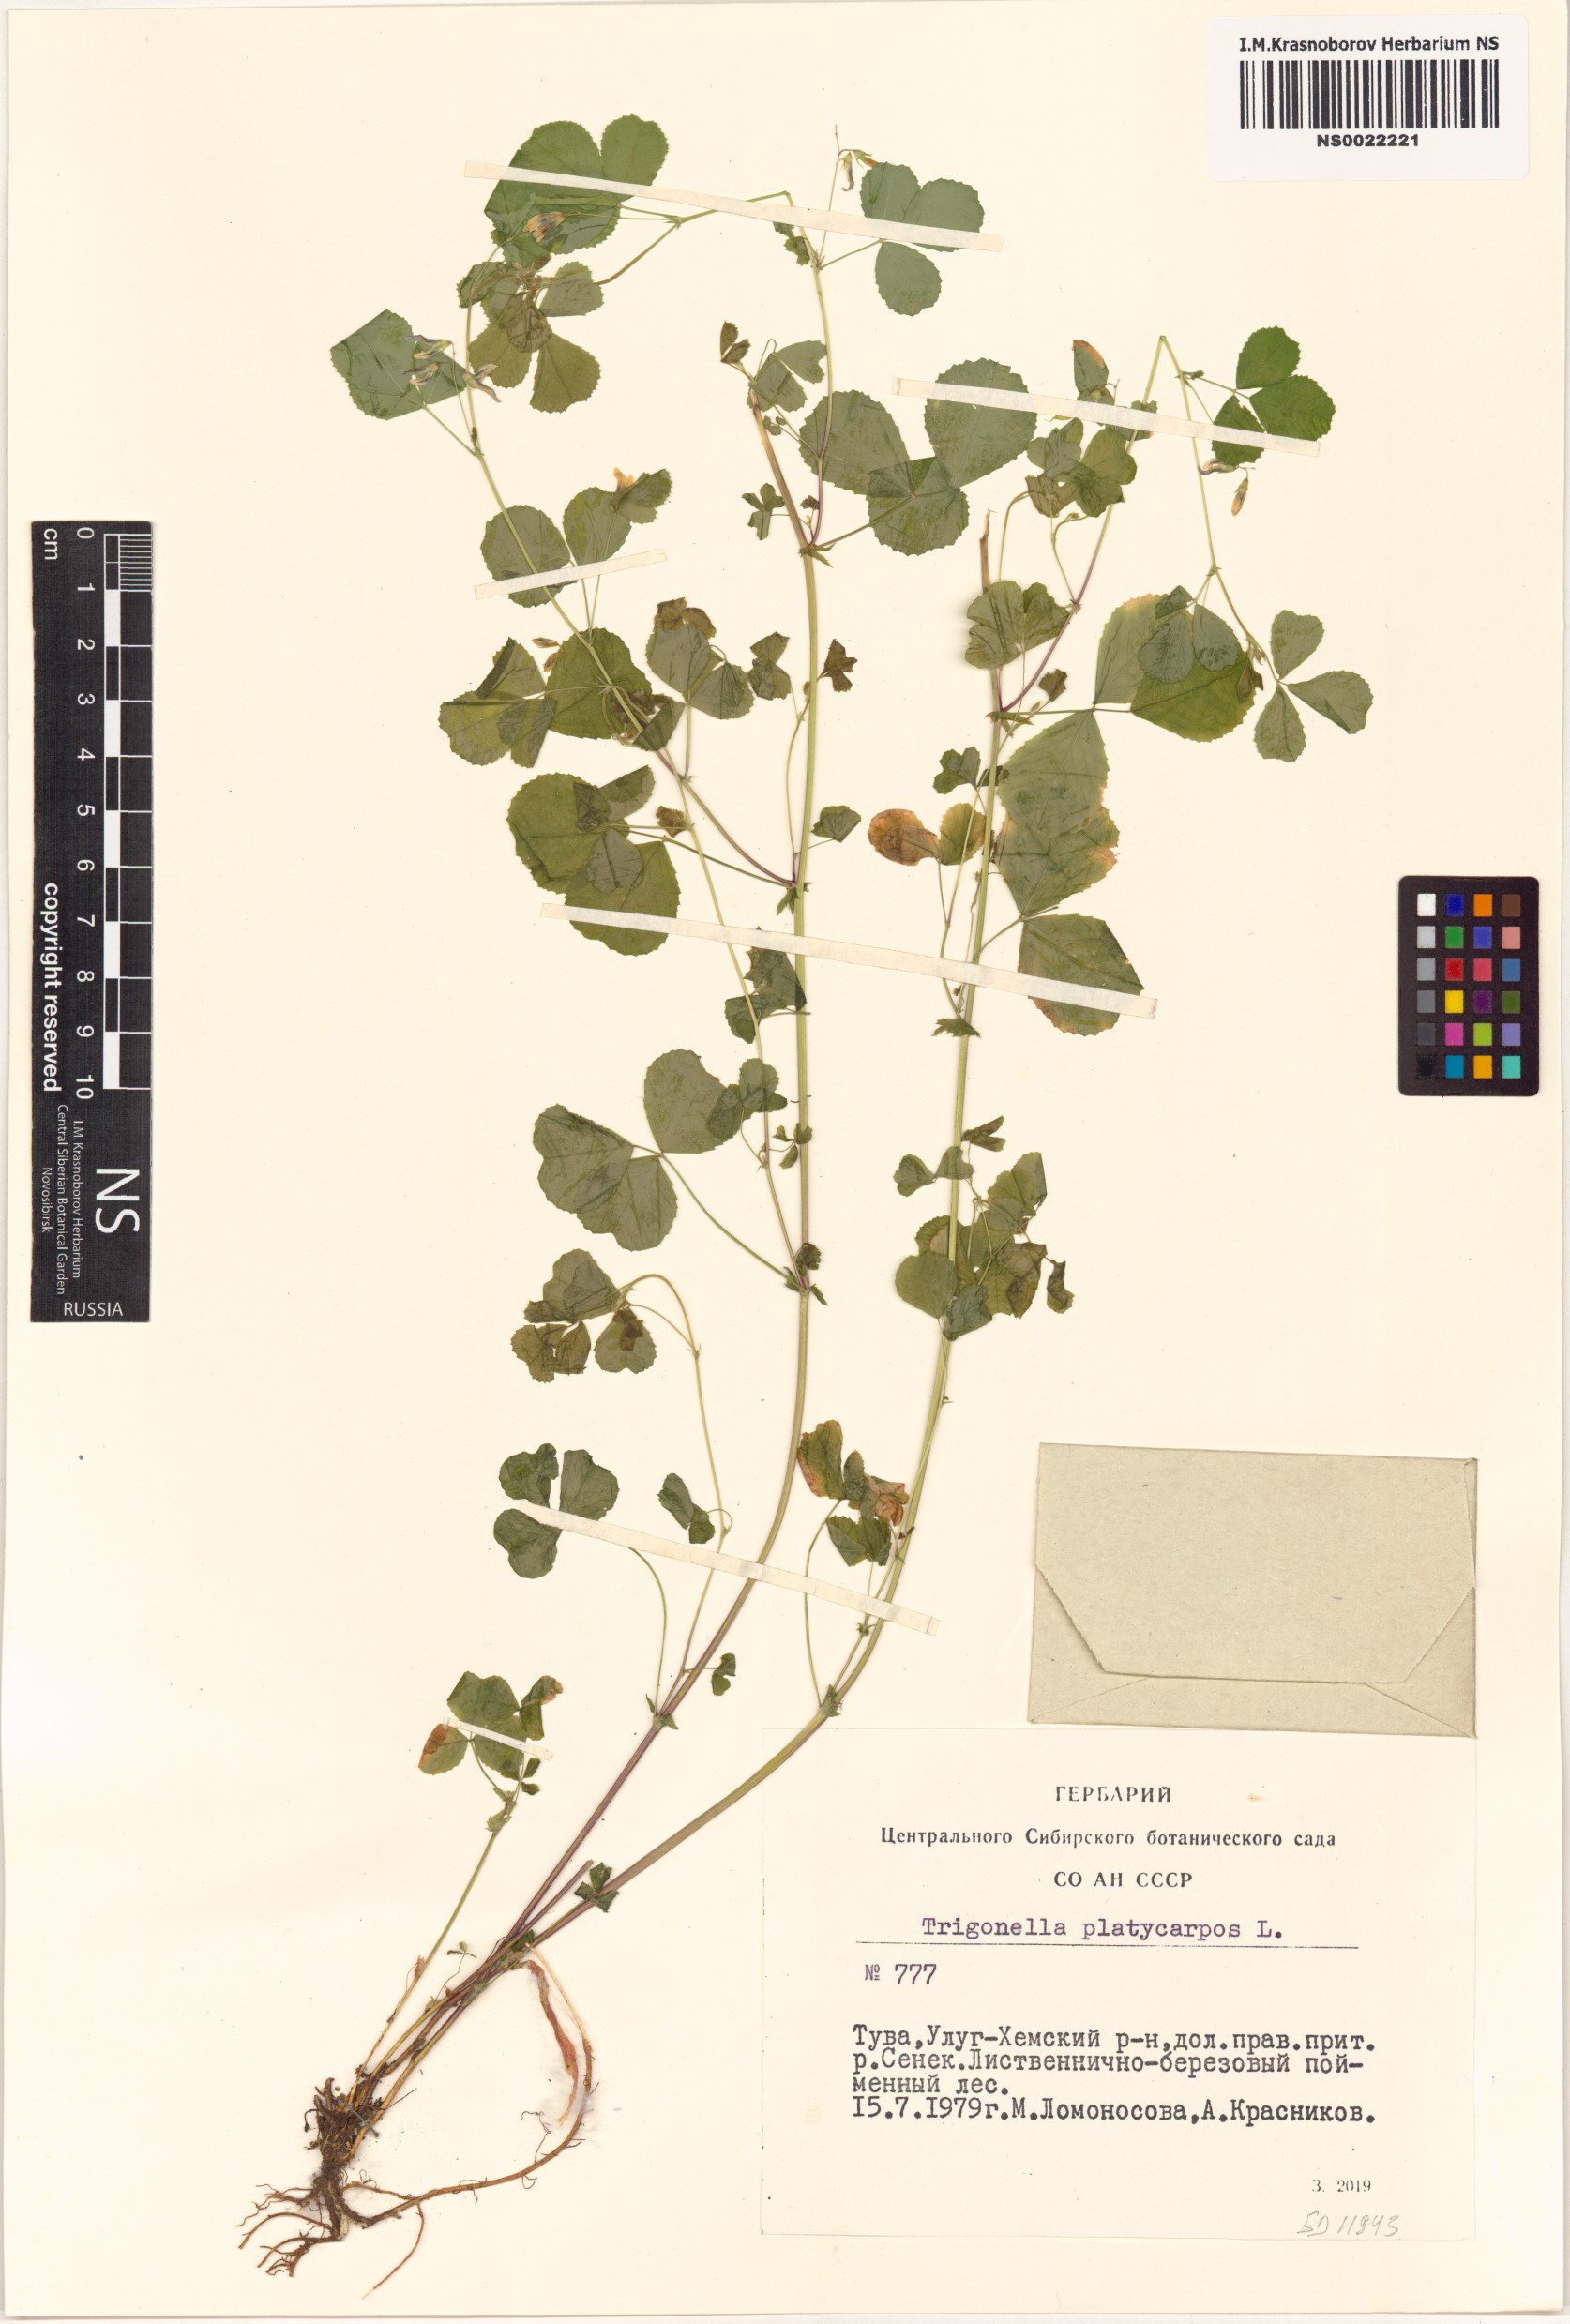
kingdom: Plantae
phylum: Tracheophyta
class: Magnoliopsida
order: Fabales
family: Fabaceae
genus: Medicago
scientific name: Medicago platycarpos
